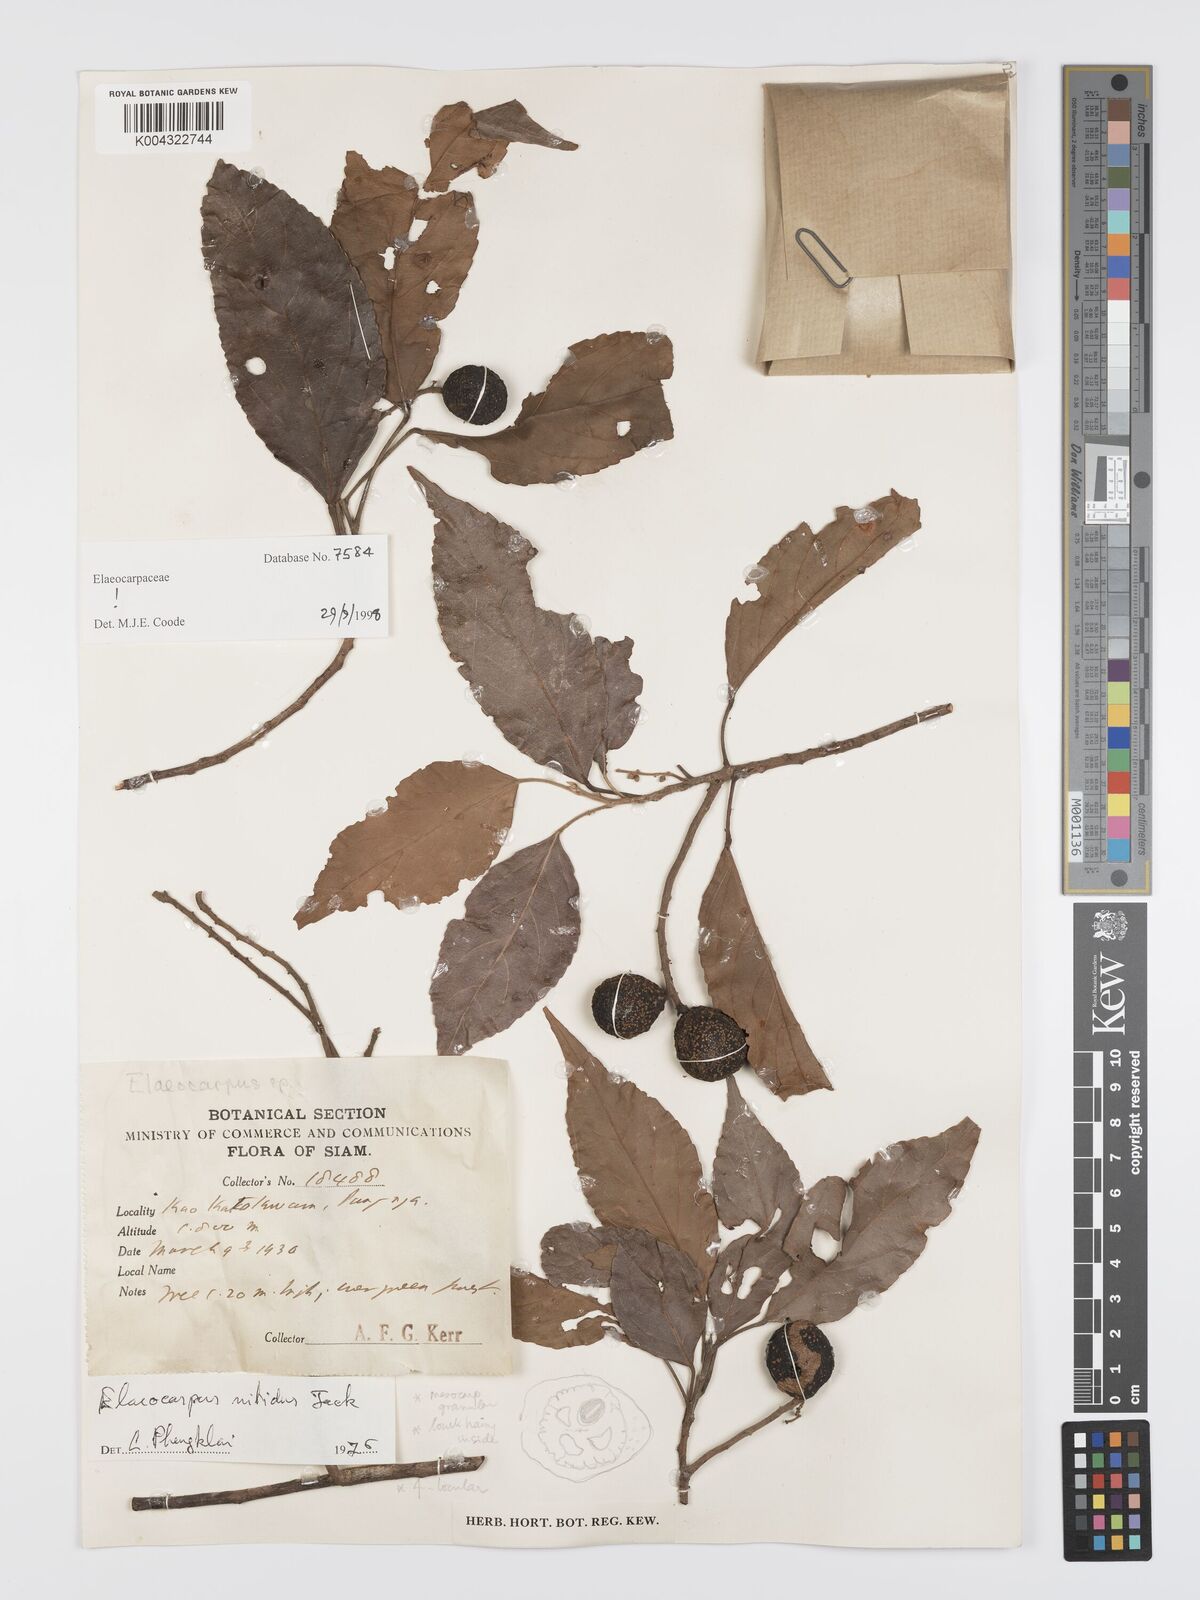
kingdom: Plantae
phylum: Tracheophyta
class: Magnoliopsida
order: Oxalidales
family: Elaeocarpaceae
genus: Elaeocarpus
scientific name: Elaeocarpus nitidus
